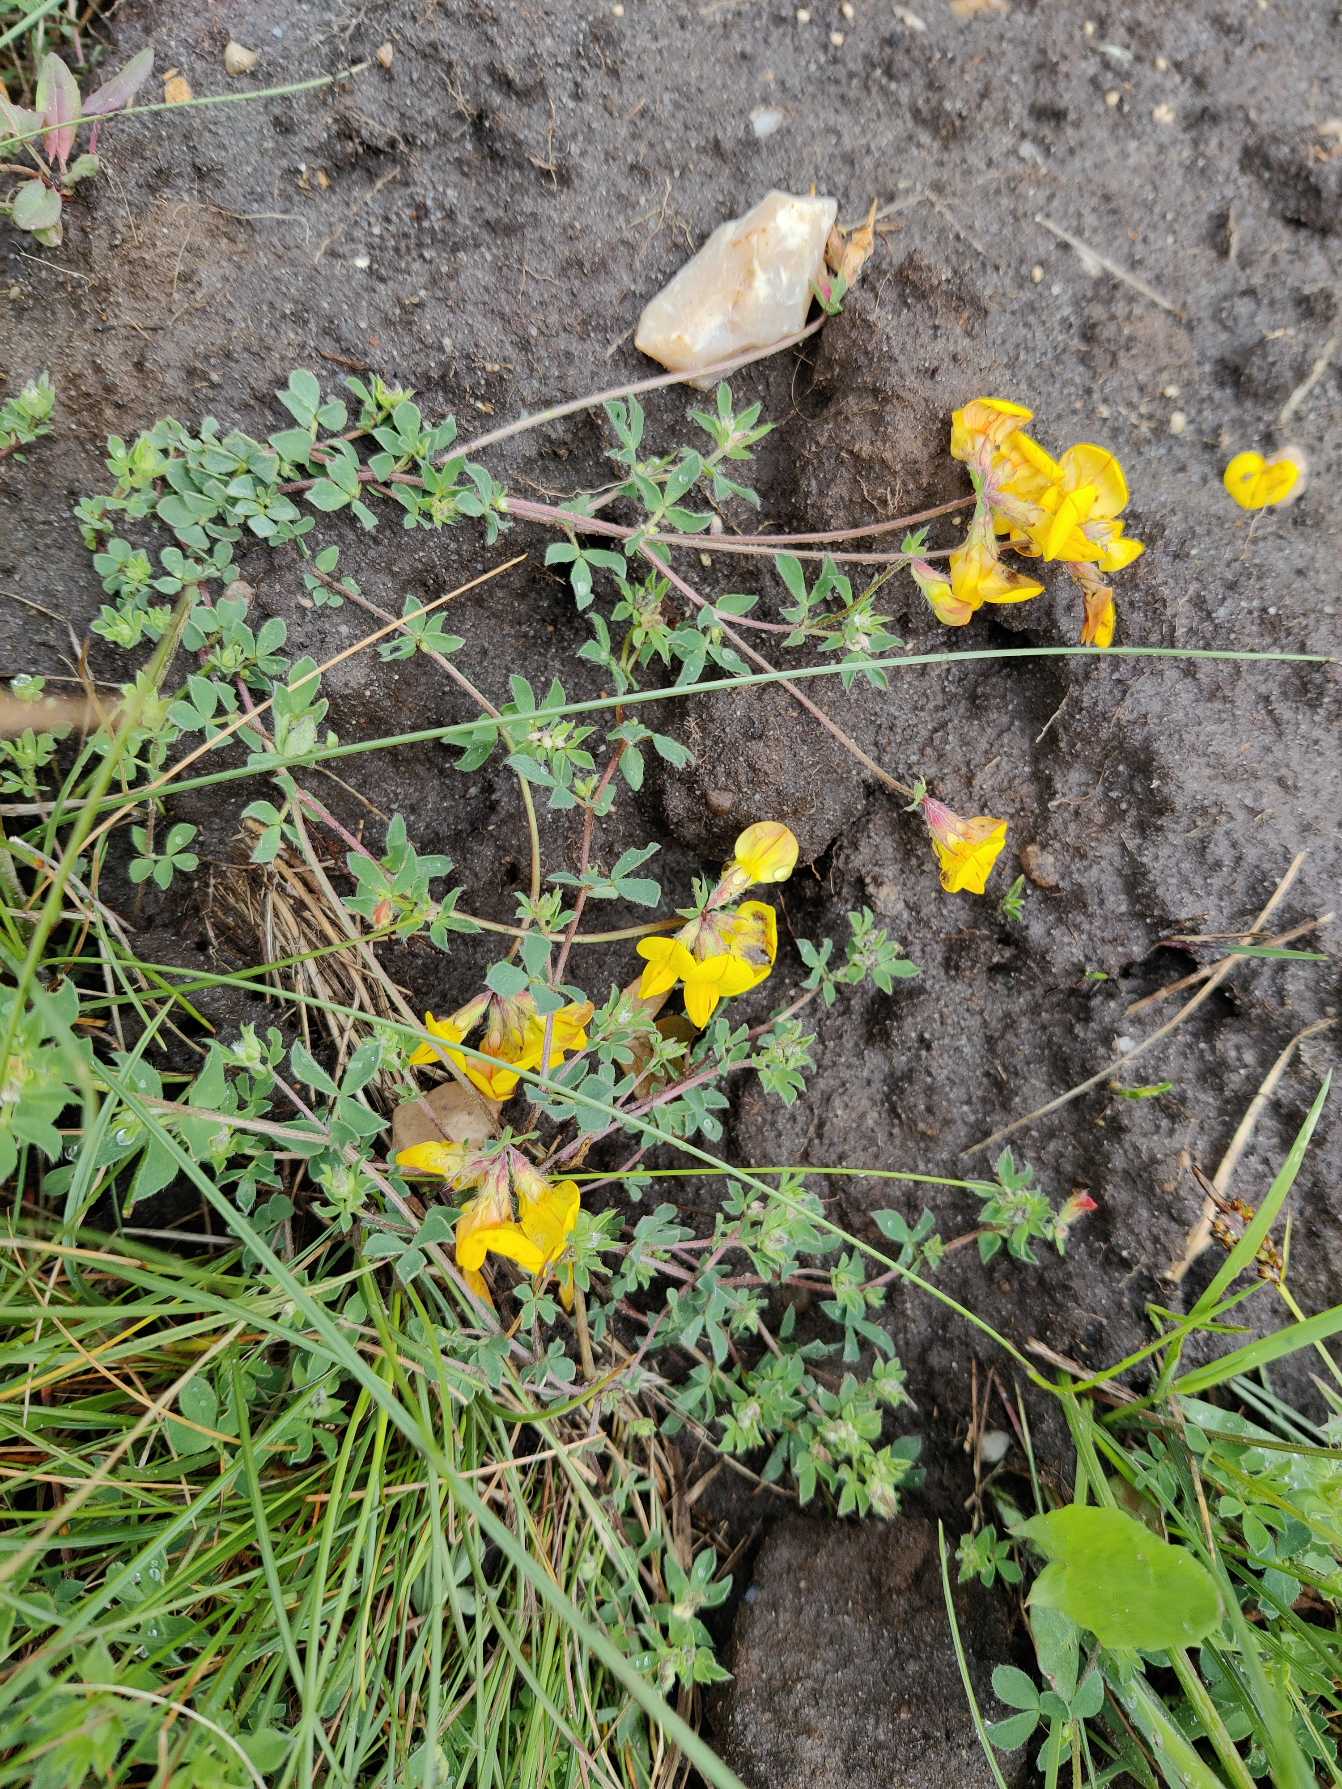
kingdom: Plantae
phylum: Tracheophyta
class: Magnoliopsida
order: Fabales
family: Fabaceae
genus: Lotus
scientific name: Lotus corniculatus
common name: Almindelig kællingetand
